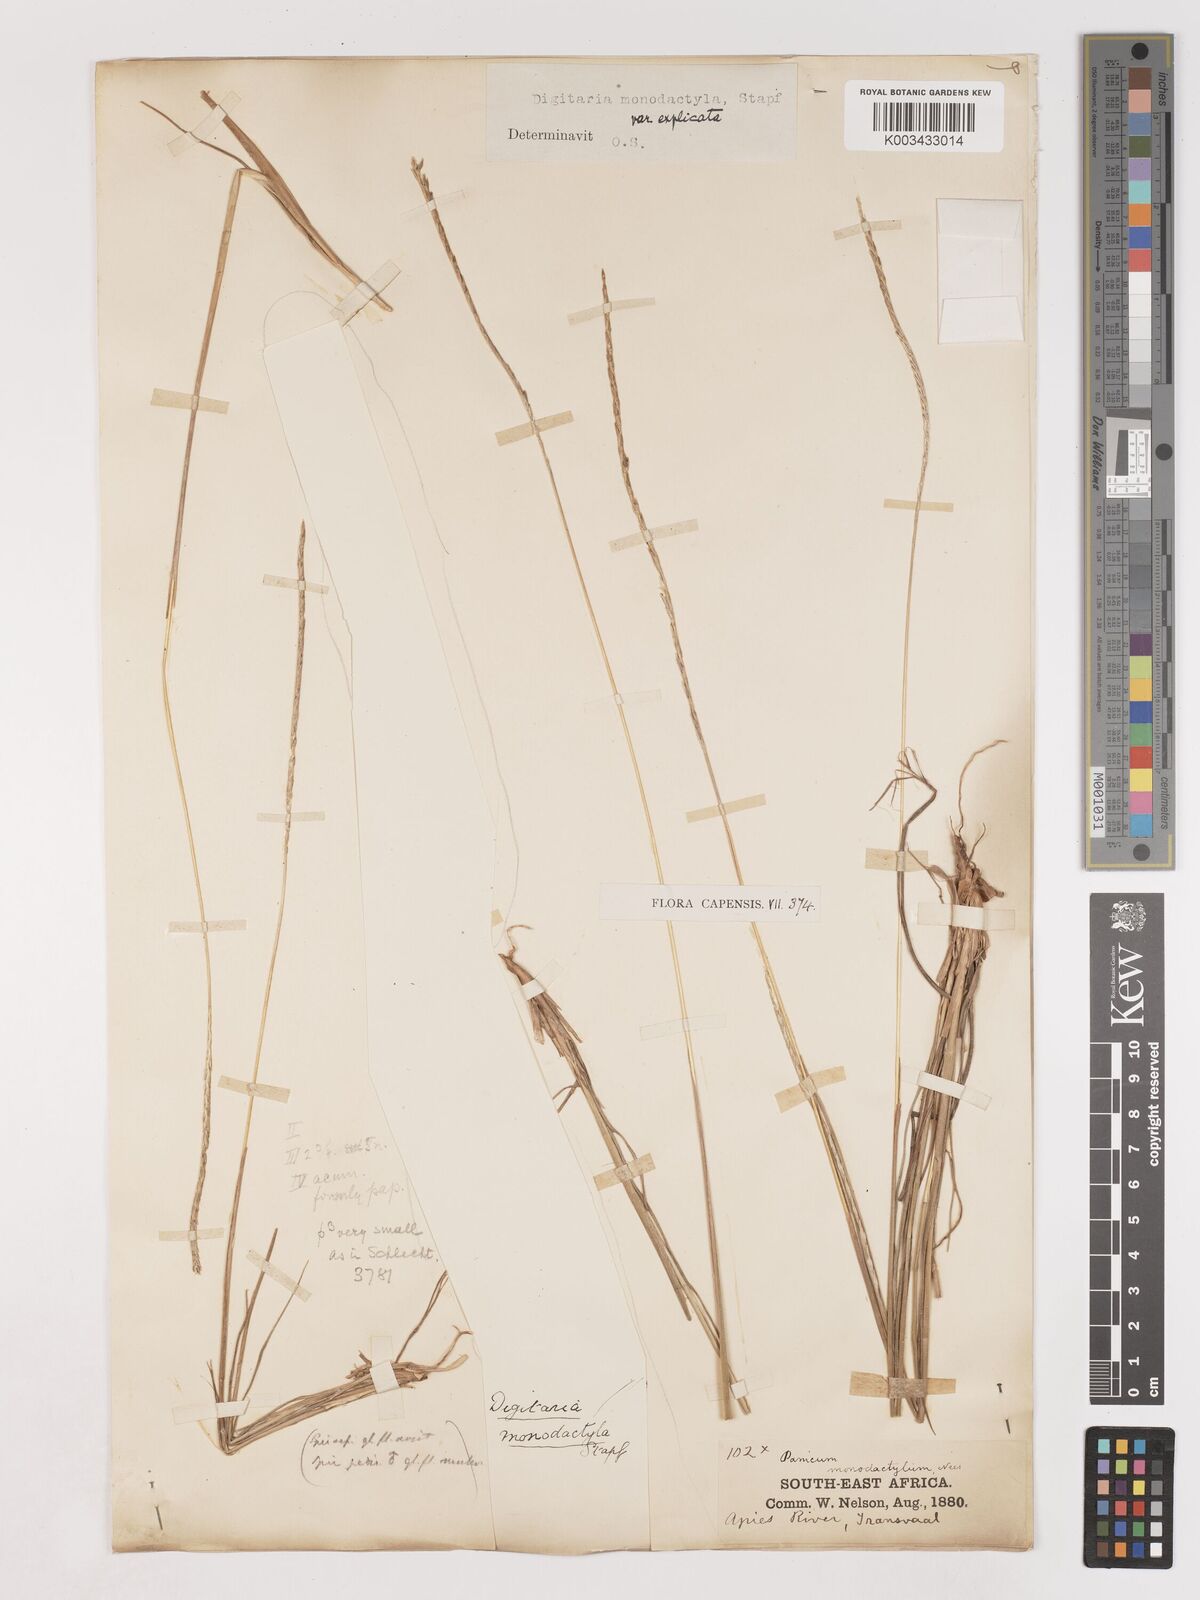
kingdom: Plantae
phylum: Tracheophyta
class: Liliopsida
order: Poales
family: Poaceae
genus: Digitaria
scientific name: Digitaria monodactyla
